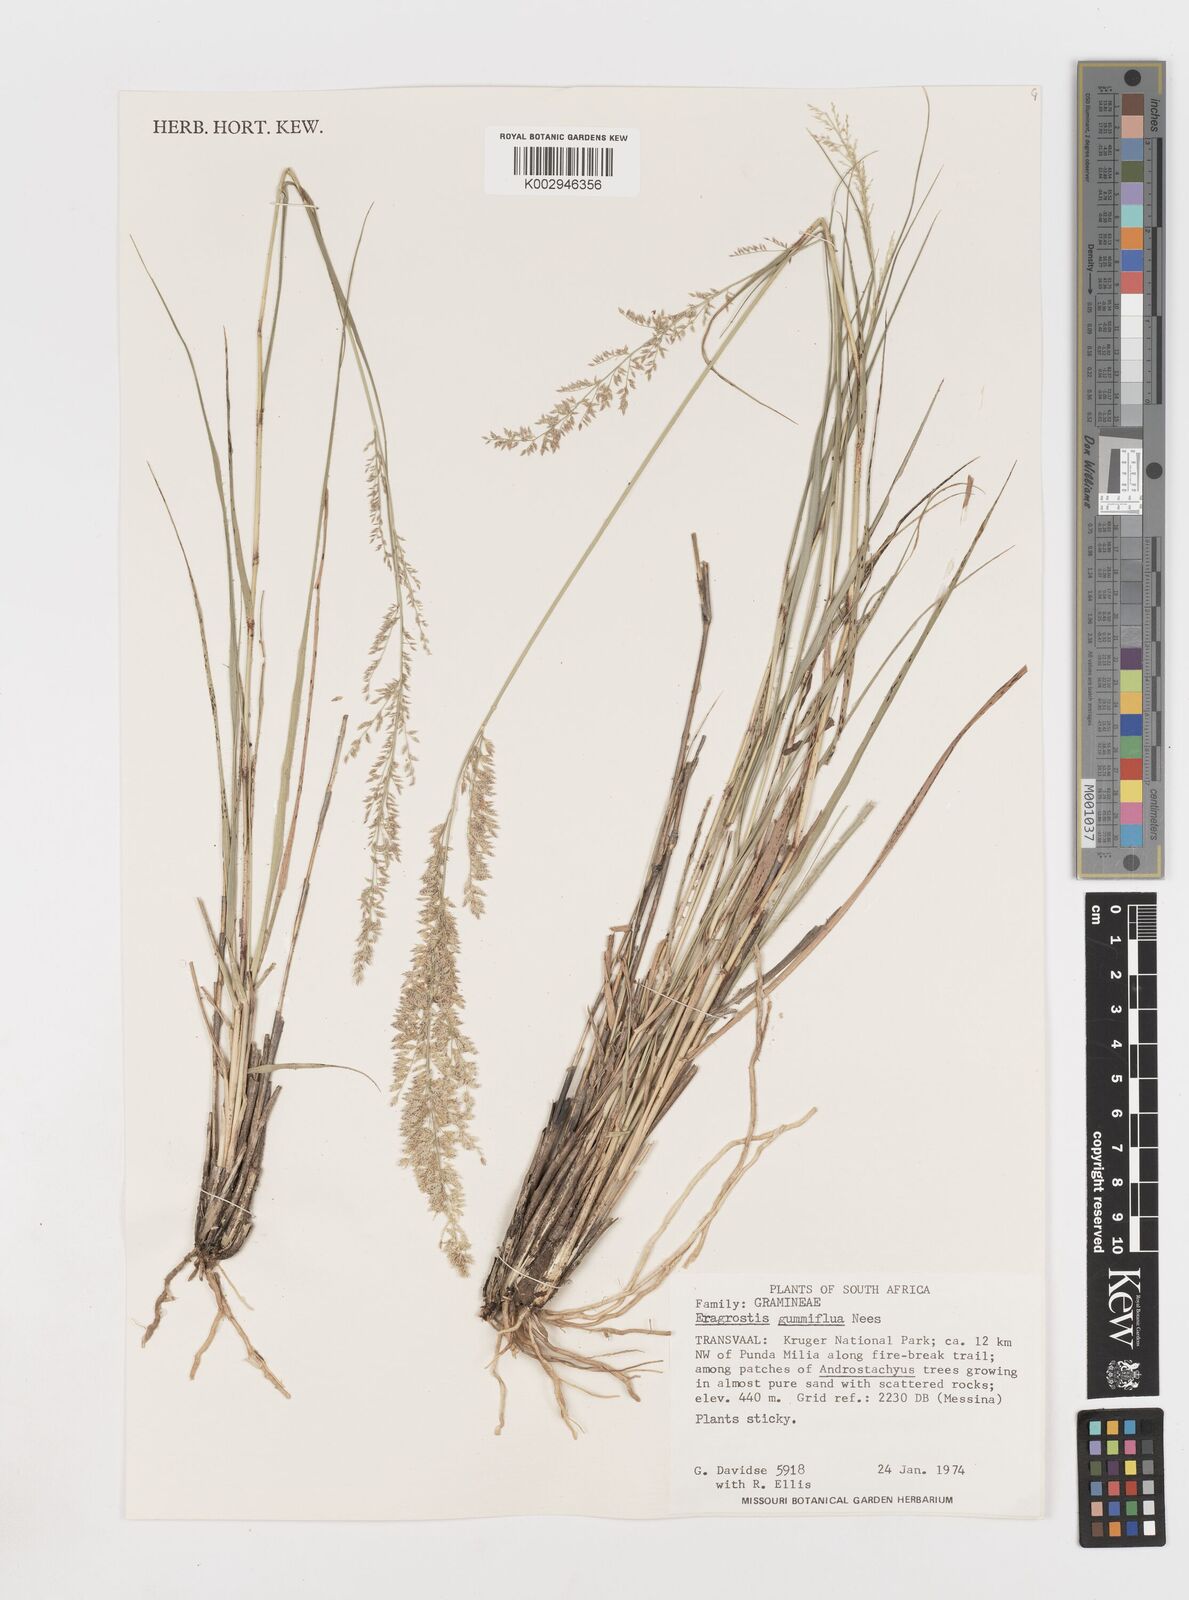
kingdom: Plantae
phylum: Tracheophyta
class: Liliopsida
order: Poales
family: Poaceae
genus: Eragrostis
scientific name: Eragrostis gummiflua
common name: Gum grass
